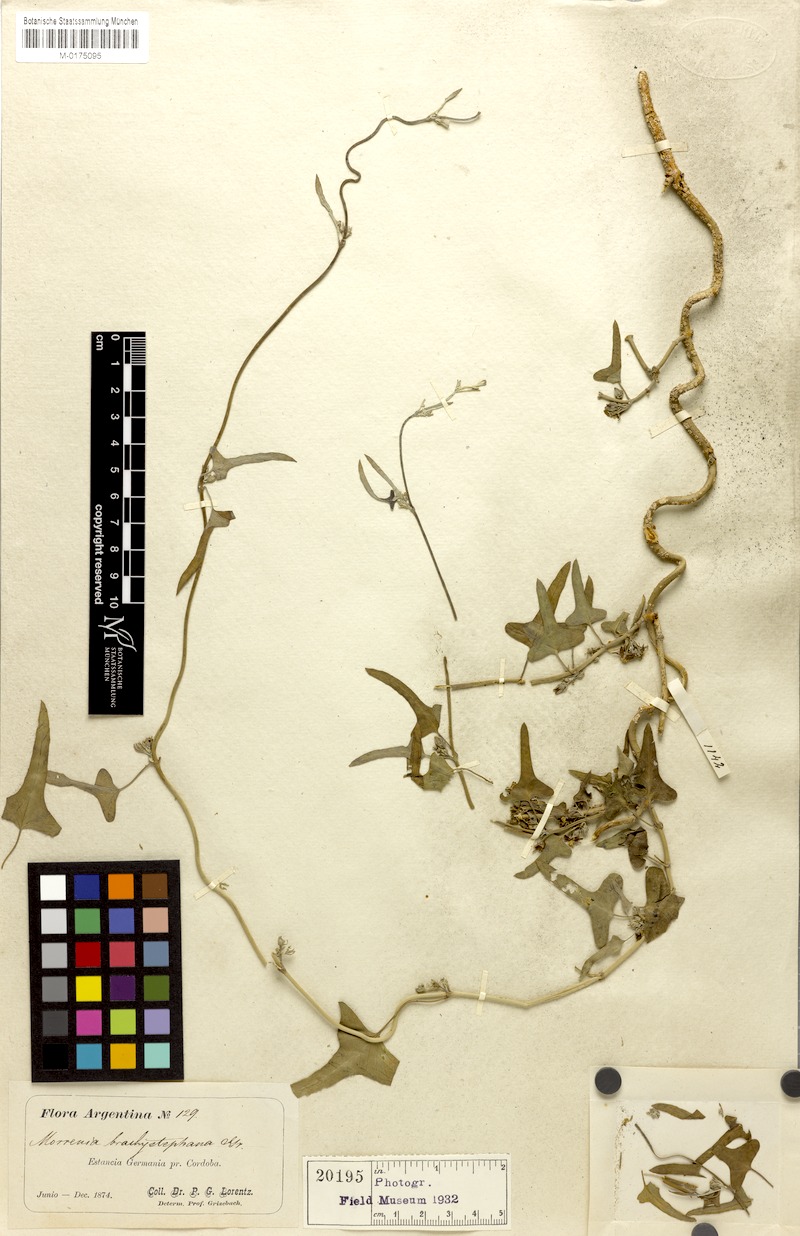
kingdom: Plantae
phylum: Tracheophyta
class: Magnoliopsida
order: Gentianales
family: Apocynaceae
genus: Araujia
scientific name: Araujia brachystephana
